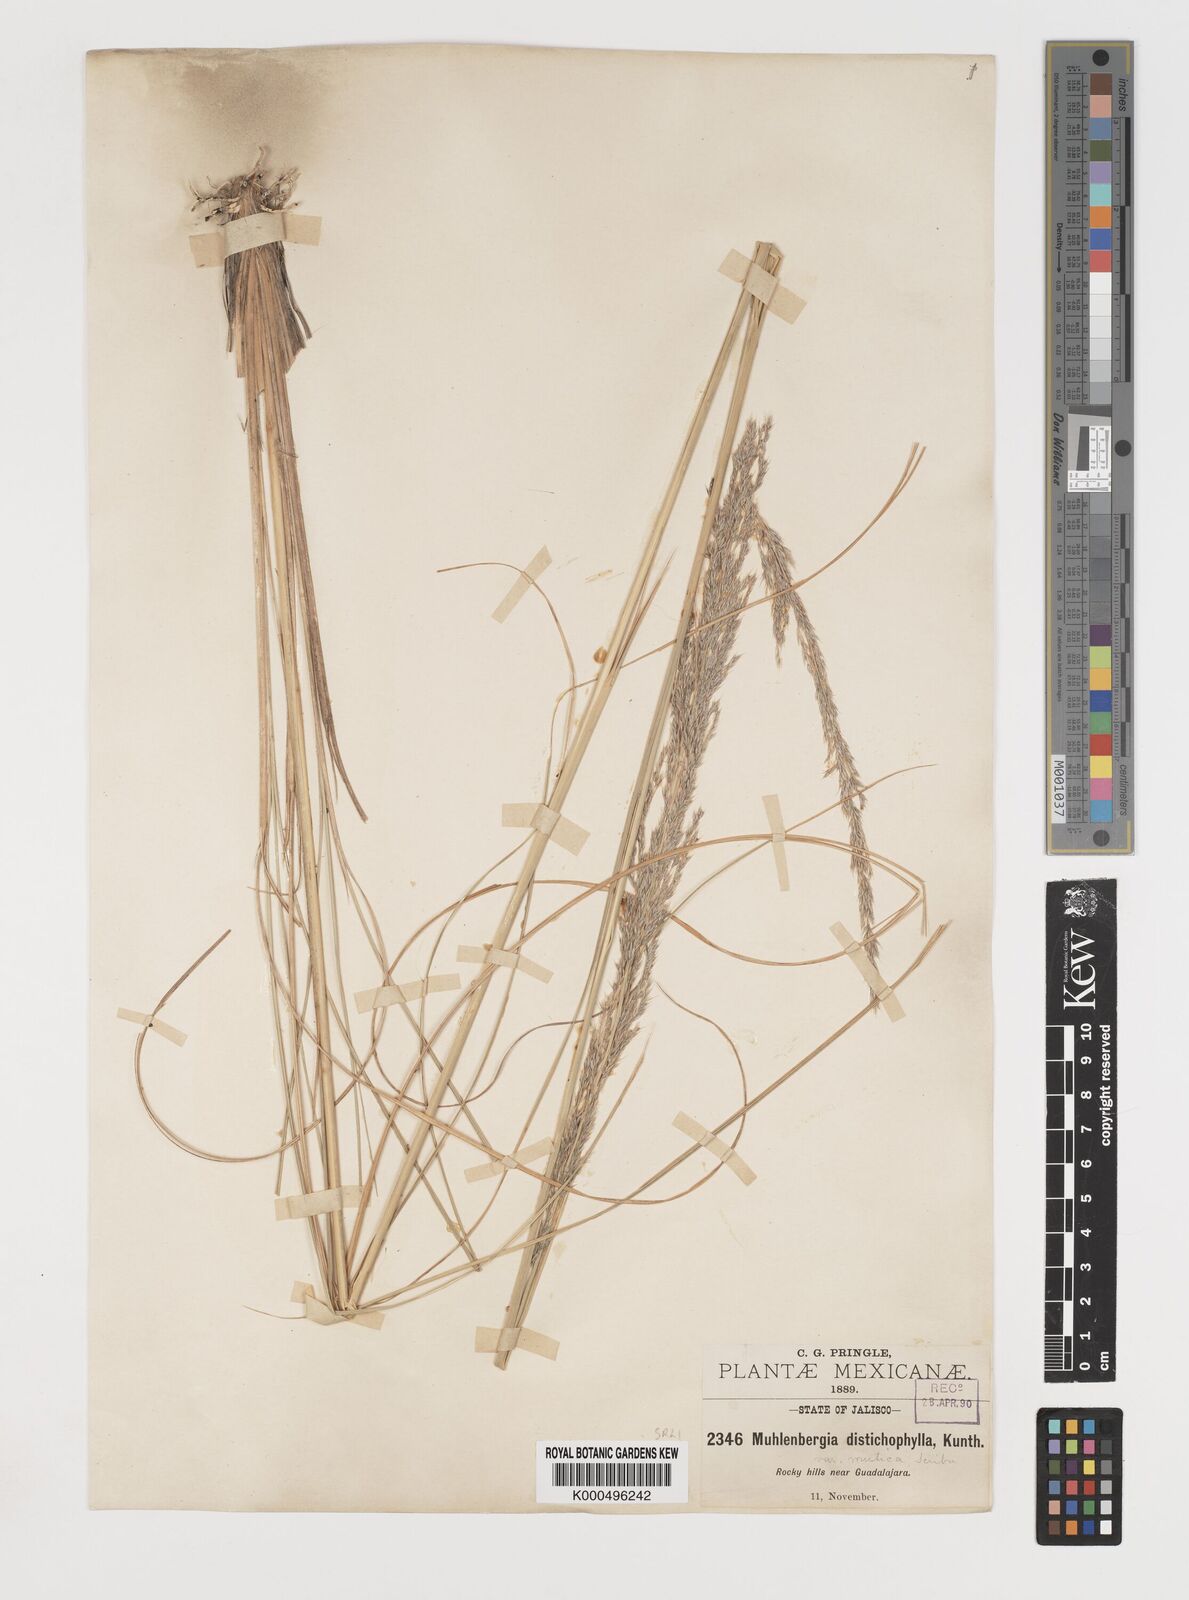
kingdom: Plantae
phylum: Tracheophyta
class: Liliopsida
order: Poales
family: Poaceae
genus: Muhlenbergia
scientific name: Muhlenbergia
